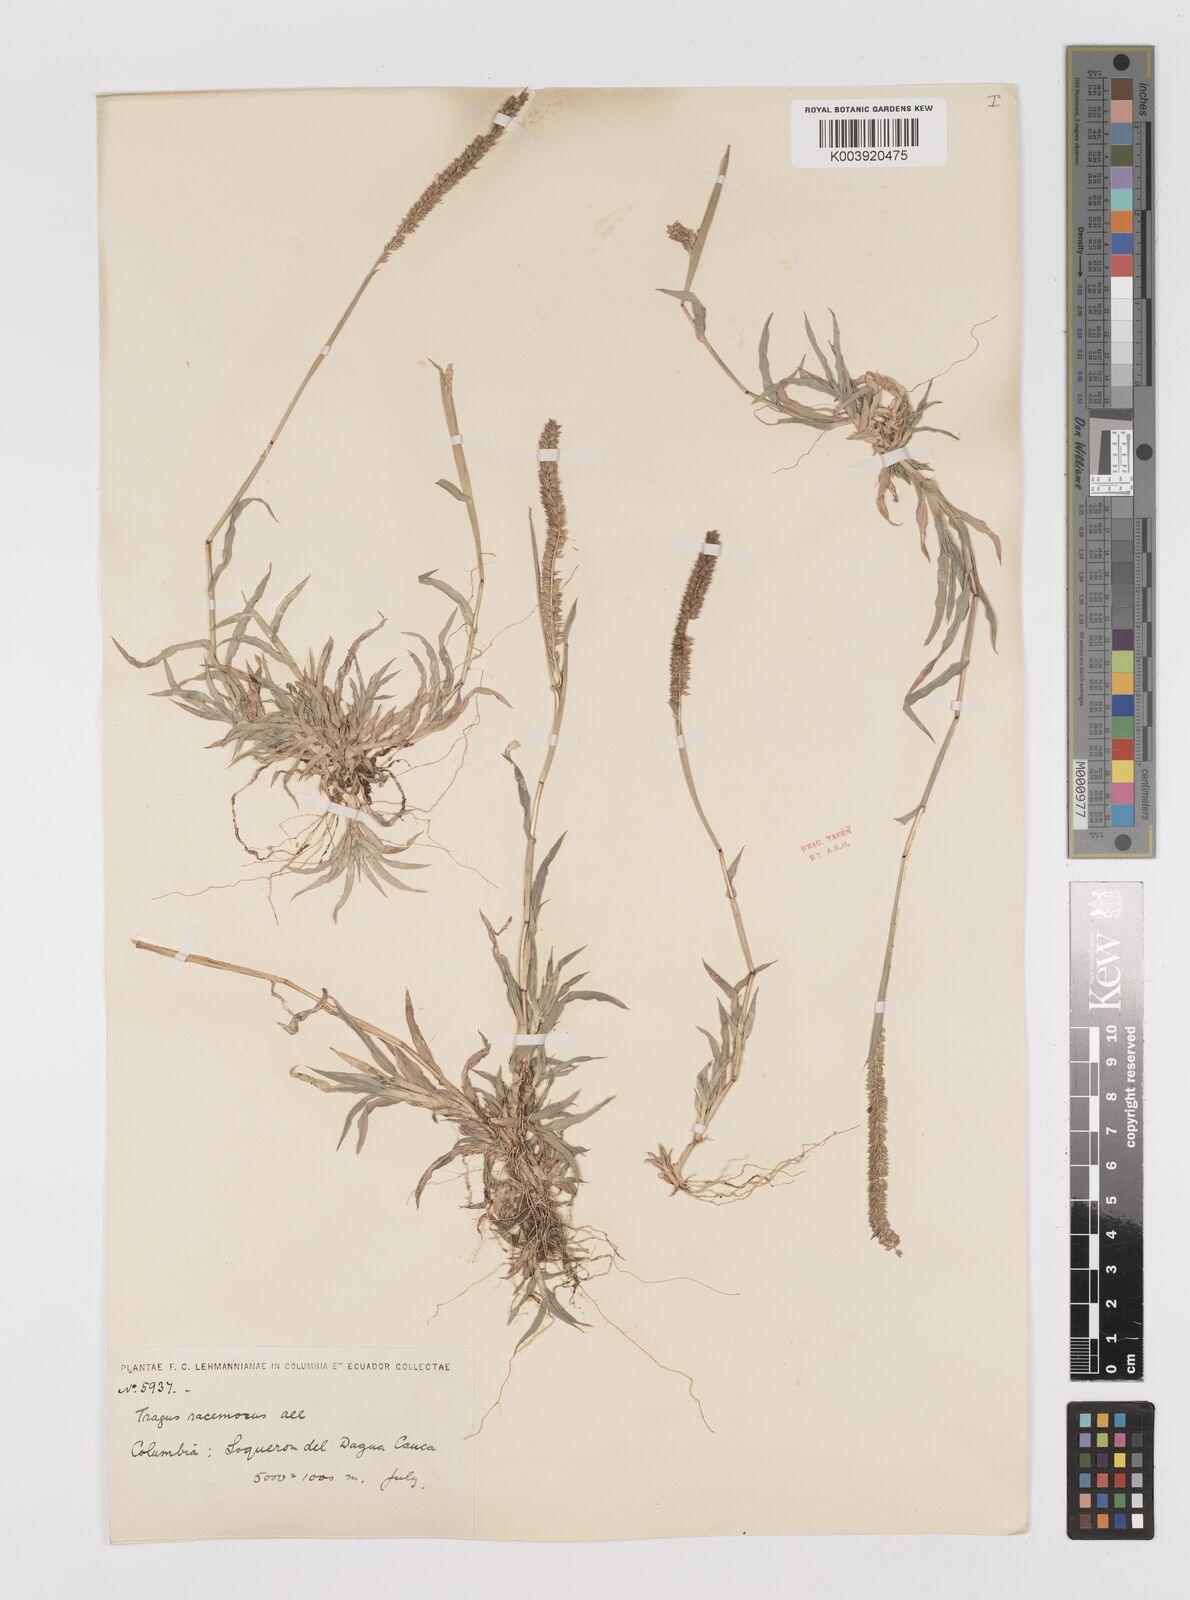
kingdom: Plantae
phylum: Tracheophyta
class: Liliopsida
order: Poales
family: Poaceae
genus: Tragus
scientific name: Tragus berteronianus
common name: African bur-grass
